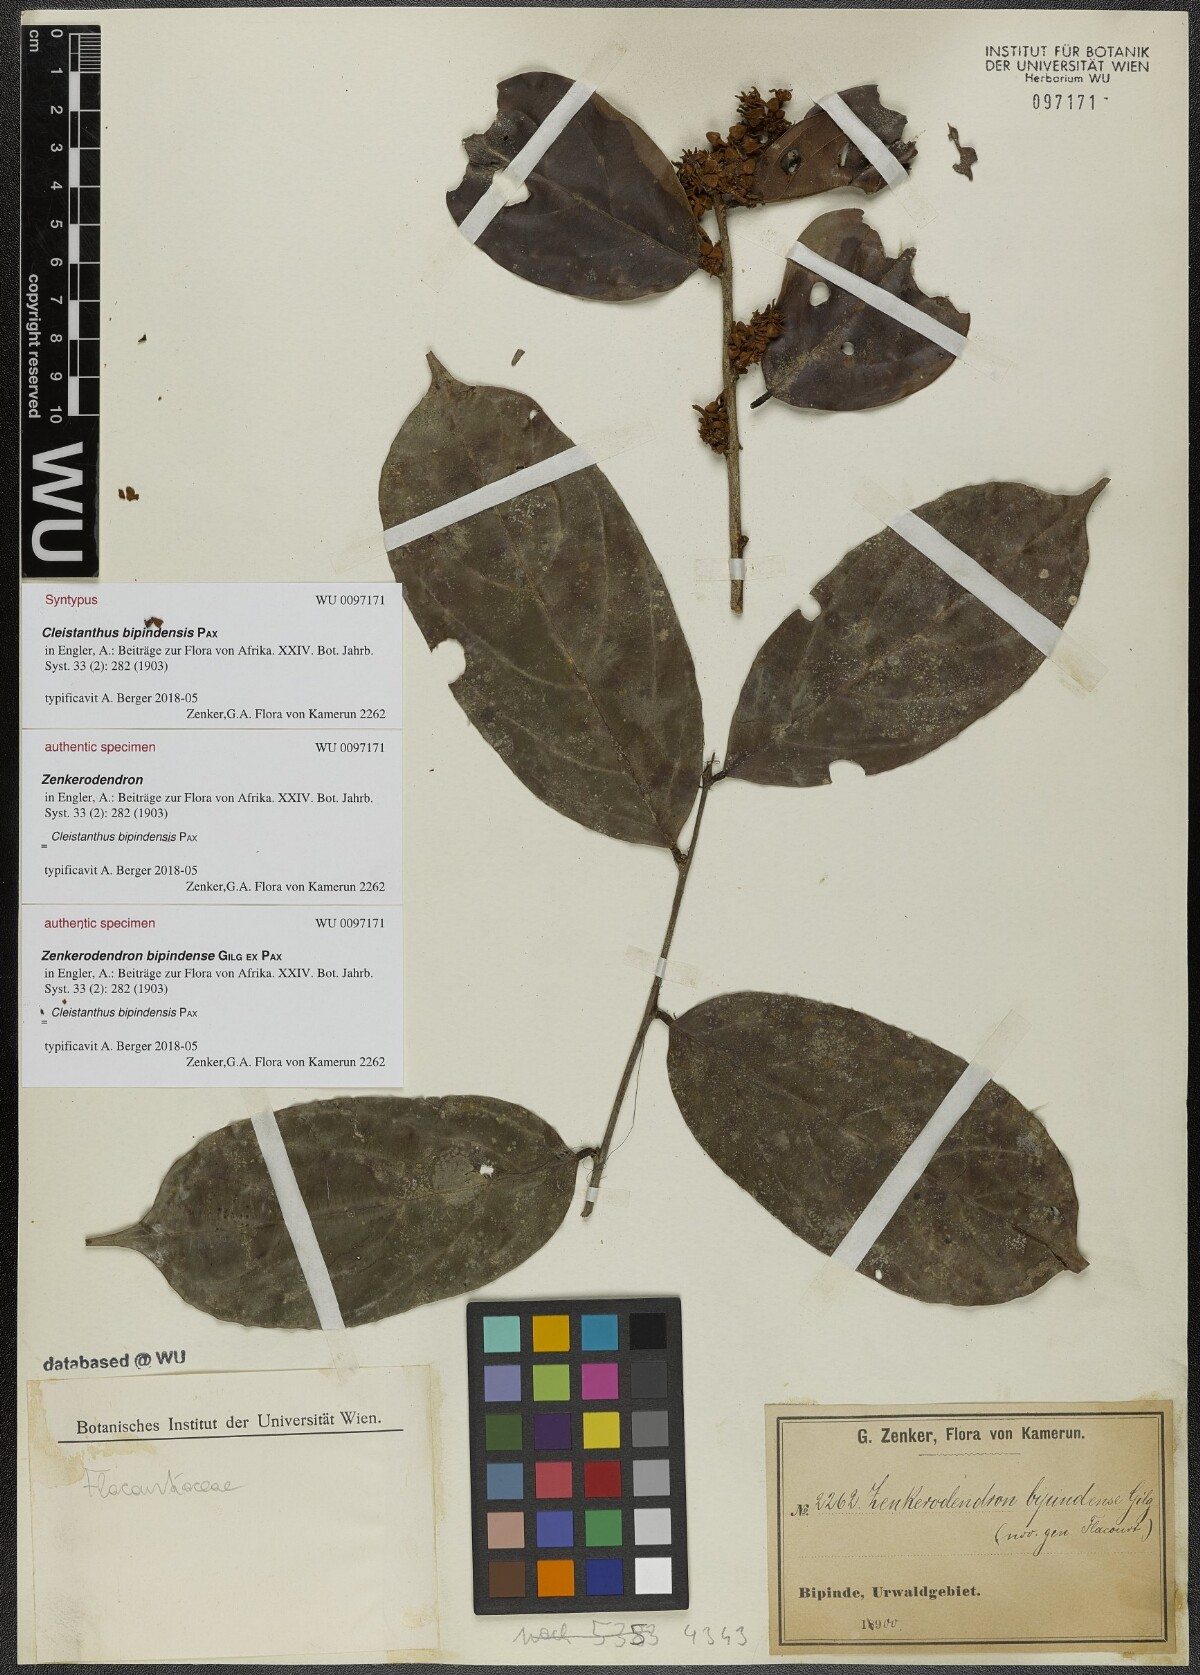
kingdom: Plantae
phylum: Tracheophyta
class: Magnoliopsida
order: Malpighiales
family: Phyllanthaceae
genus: Cleistanthus
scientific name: Cleistanthus bipindensis
